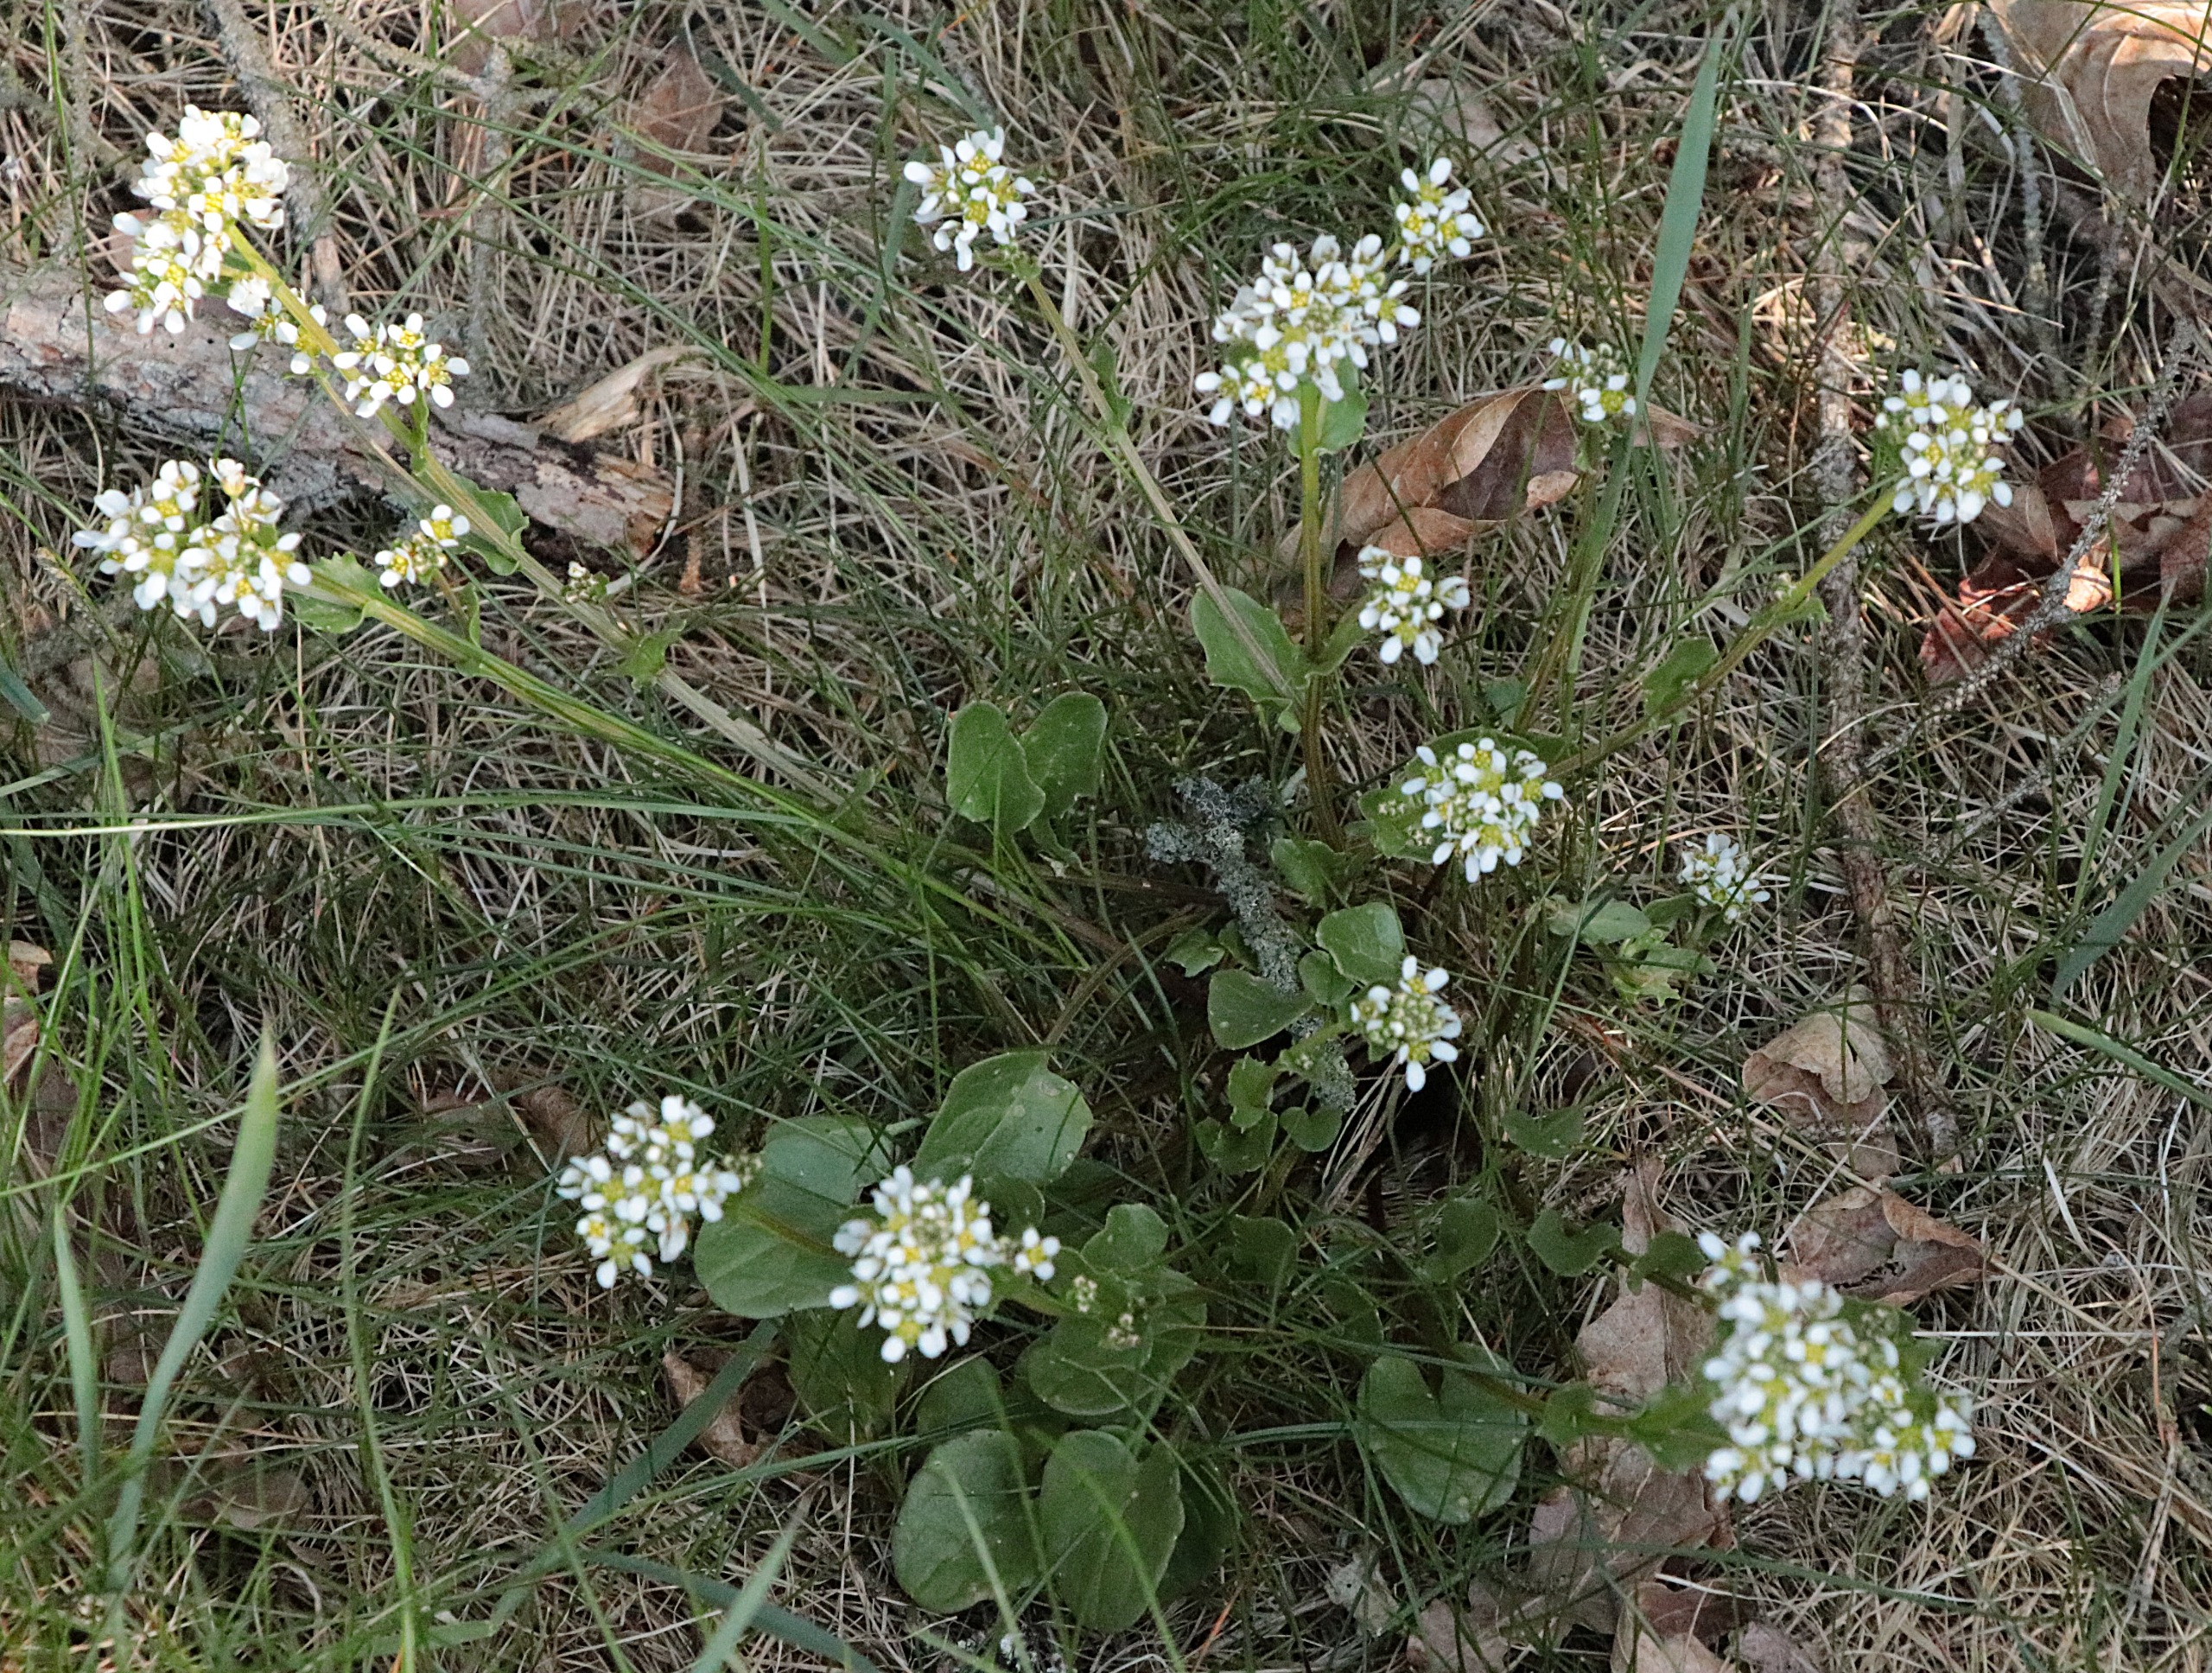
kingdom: Plantae
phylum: Tracheophyta
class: Magnoliopsida
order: Brassicales
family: Brassicaceae
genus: Cochlearia
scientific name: Cochlearia officinalis
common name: Læge-kokleare (underart)
